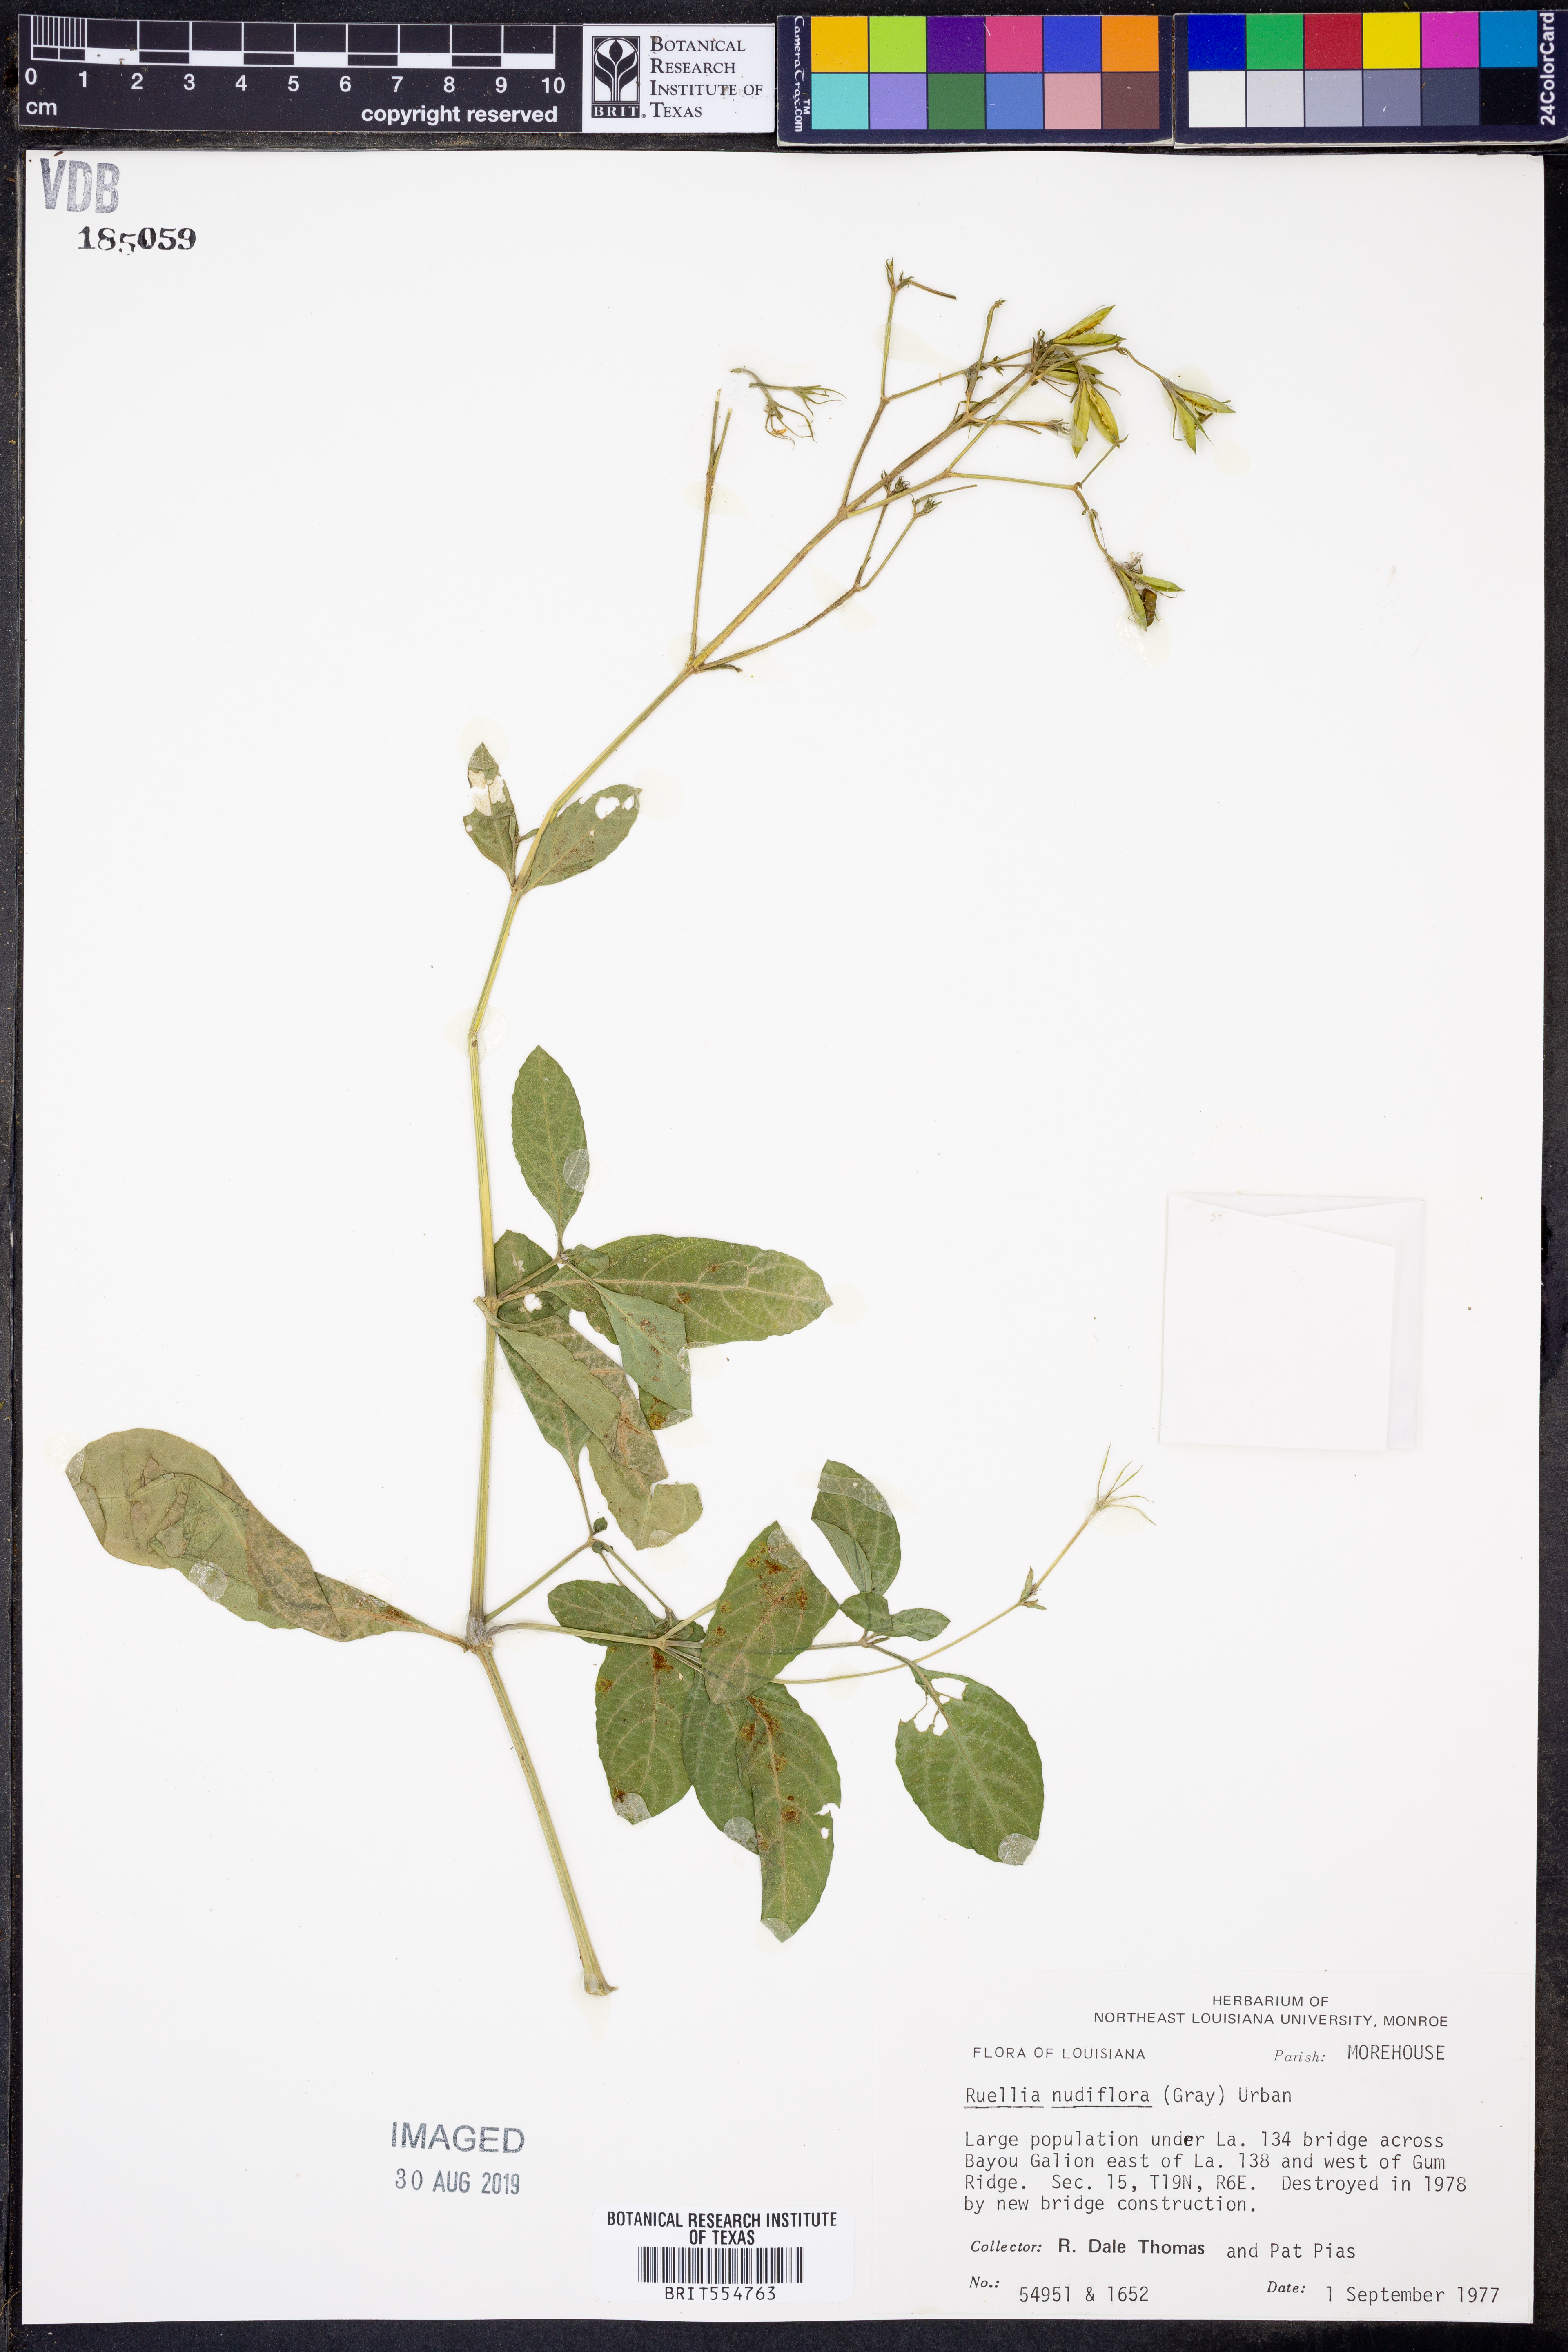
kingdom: Plantae
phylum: Tracheophyta
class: Magnoliopsida
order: Lamiales
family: Acanthaceae
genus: Ruellia
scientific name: Ruellia ciliatiflora
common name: Hairyflower wild petunia
